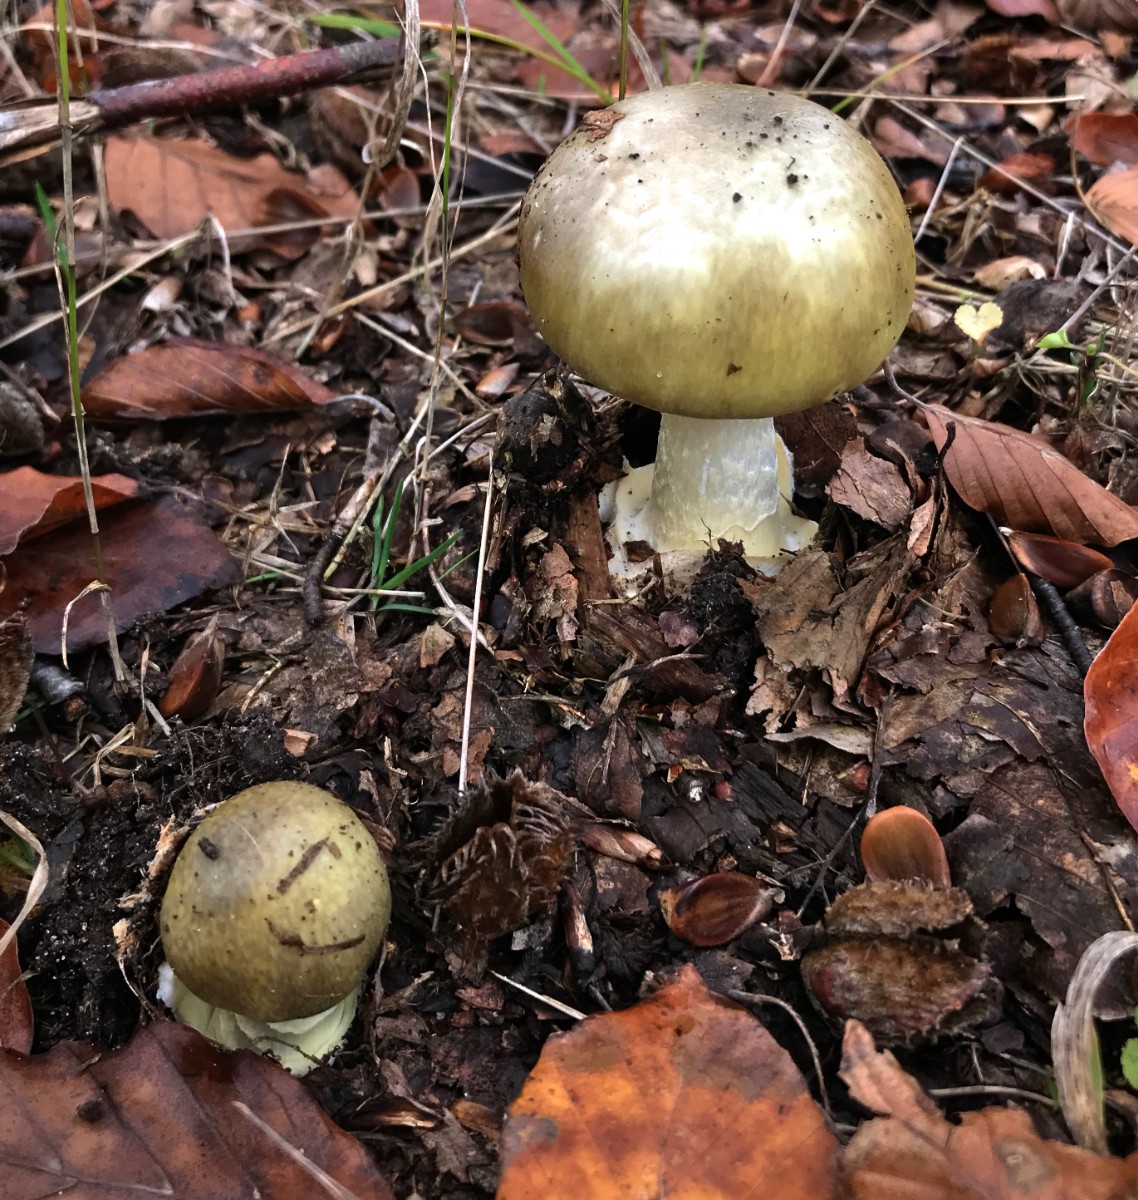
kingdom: Fungi
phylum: Basidiomycota
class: Agaricomycetes
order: Agaricales
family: Amanitaceae
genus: Amanita
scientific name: Amanita phalloides
